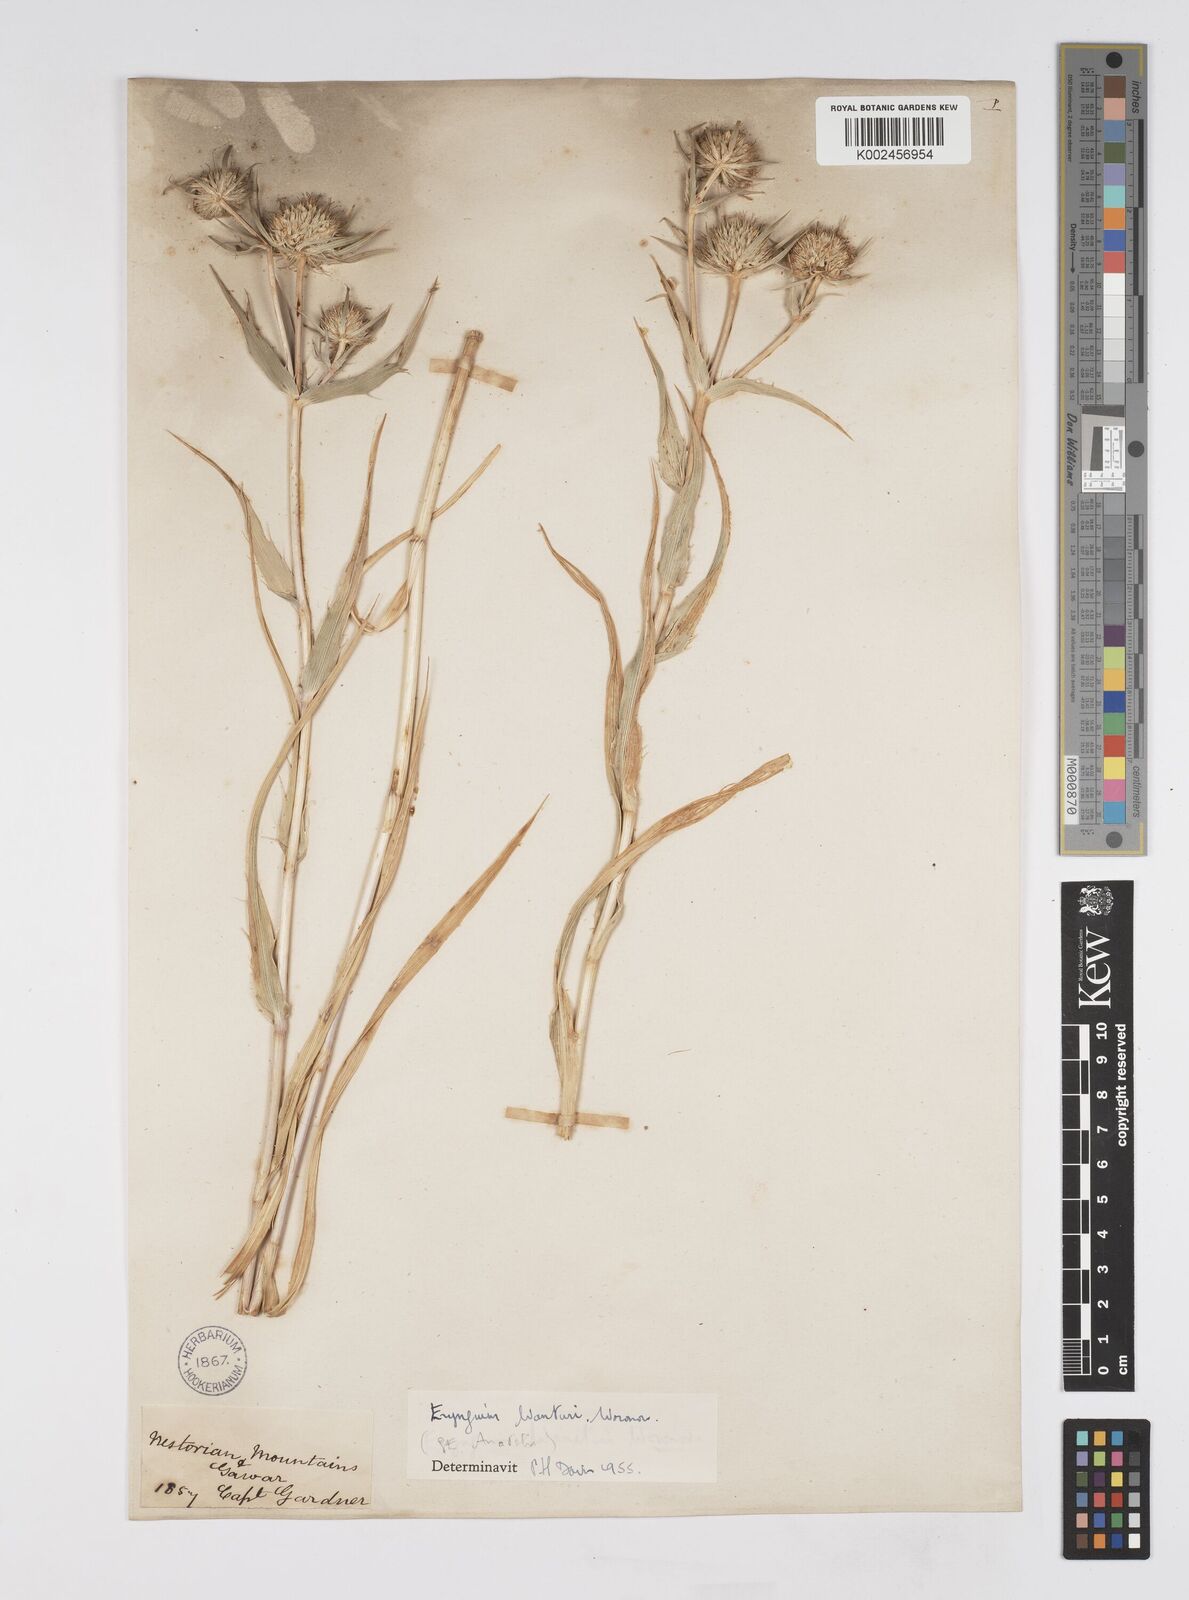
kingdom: Plantae
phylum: Tracheophyta
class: Magnoliopsida
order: Apiales
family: Apiaceae
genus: Eryngium
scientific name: Eryngium wanaturi
